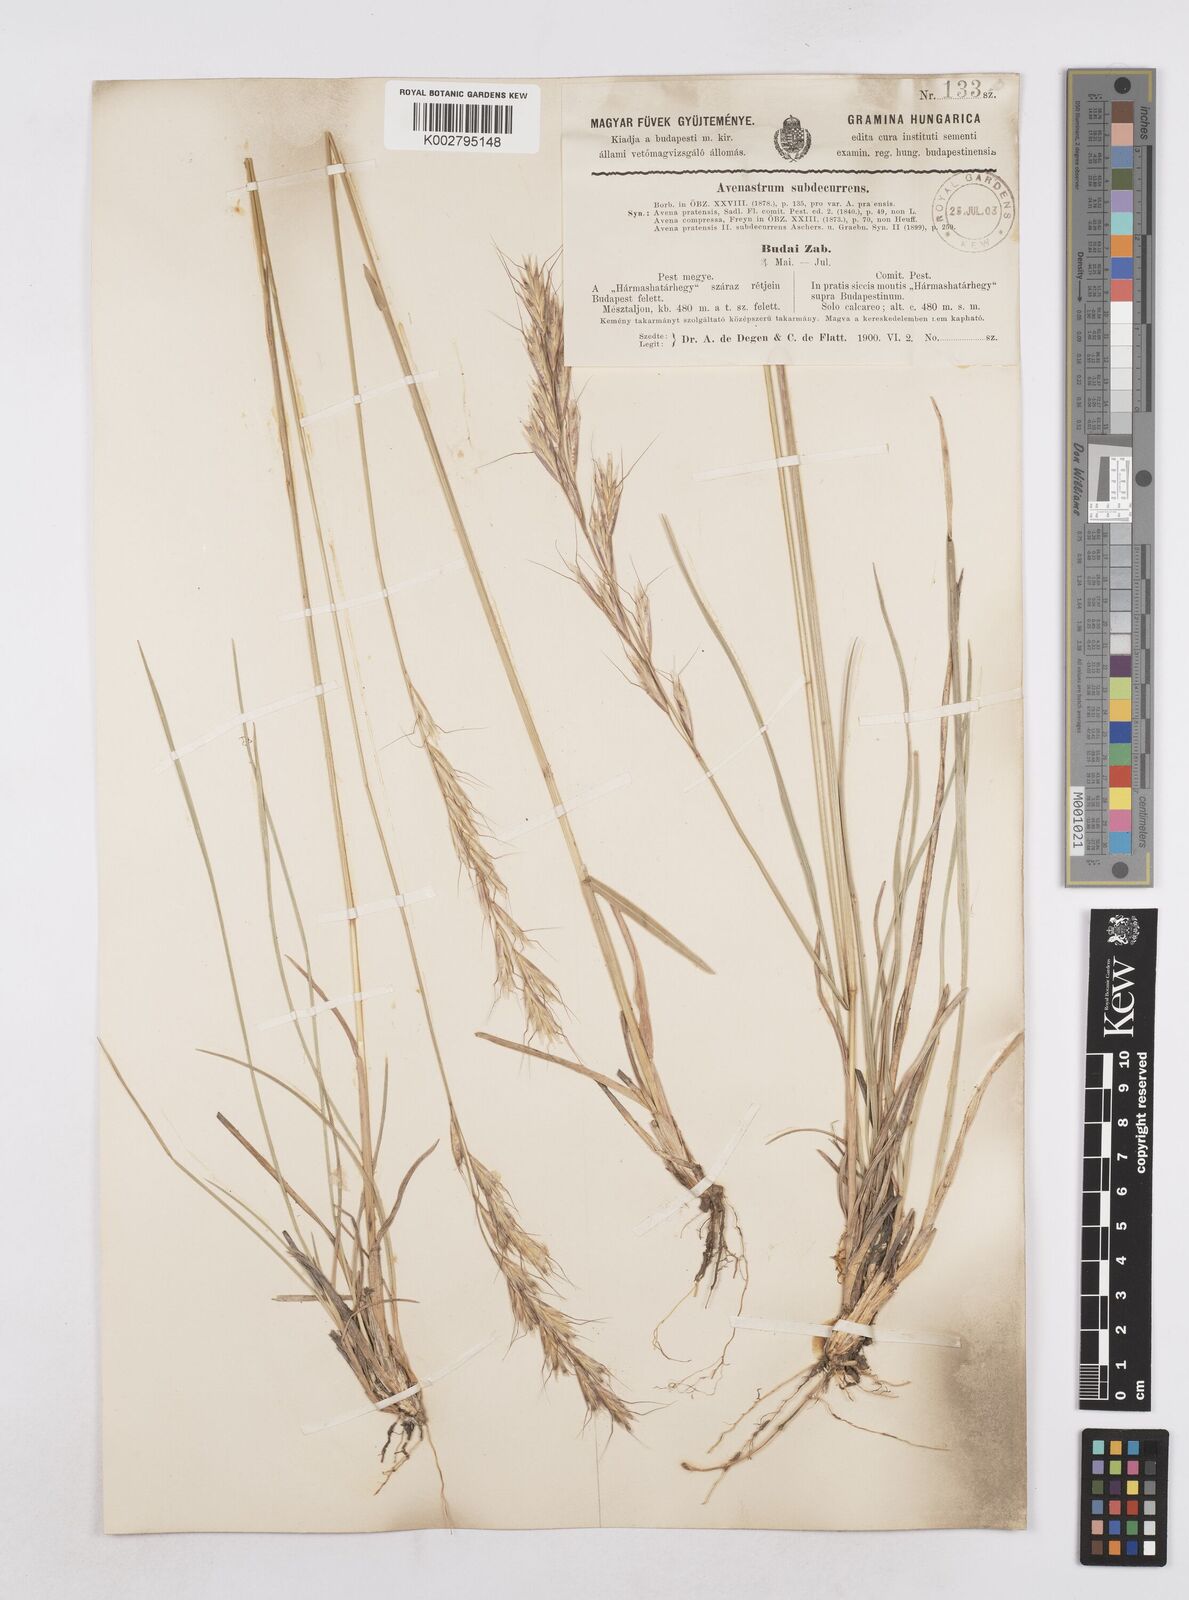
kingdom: Plantae
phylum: Tracheophyta
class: Liliopsida
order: Poales
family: Poaceae
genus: Helictochloa
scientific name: Helictochloa pratensis
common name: Meadow oat grass
